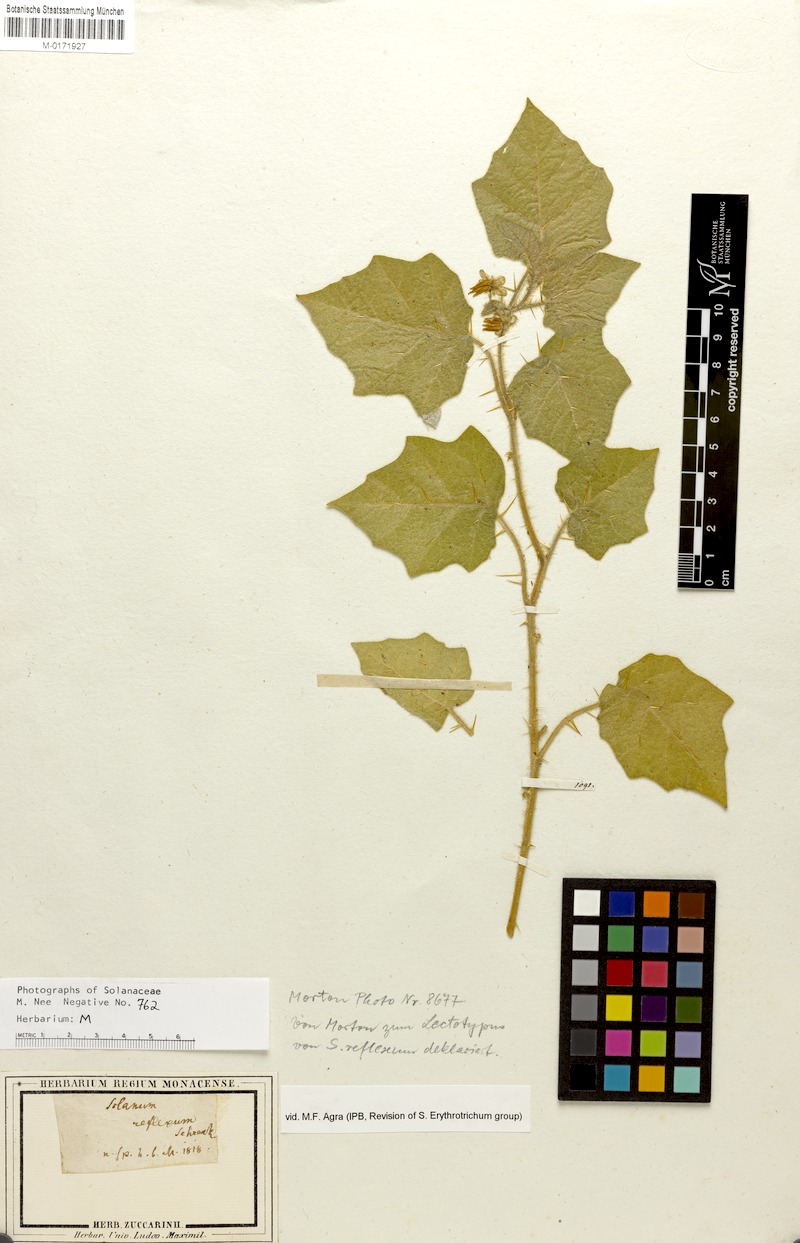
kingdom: Plantae
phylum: Tracheophyta
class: Magnoliopsida
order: Solanales
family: Solanaceae
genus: Solanum
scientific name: Solanum aculeatissimum
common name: Dutch eggplant
